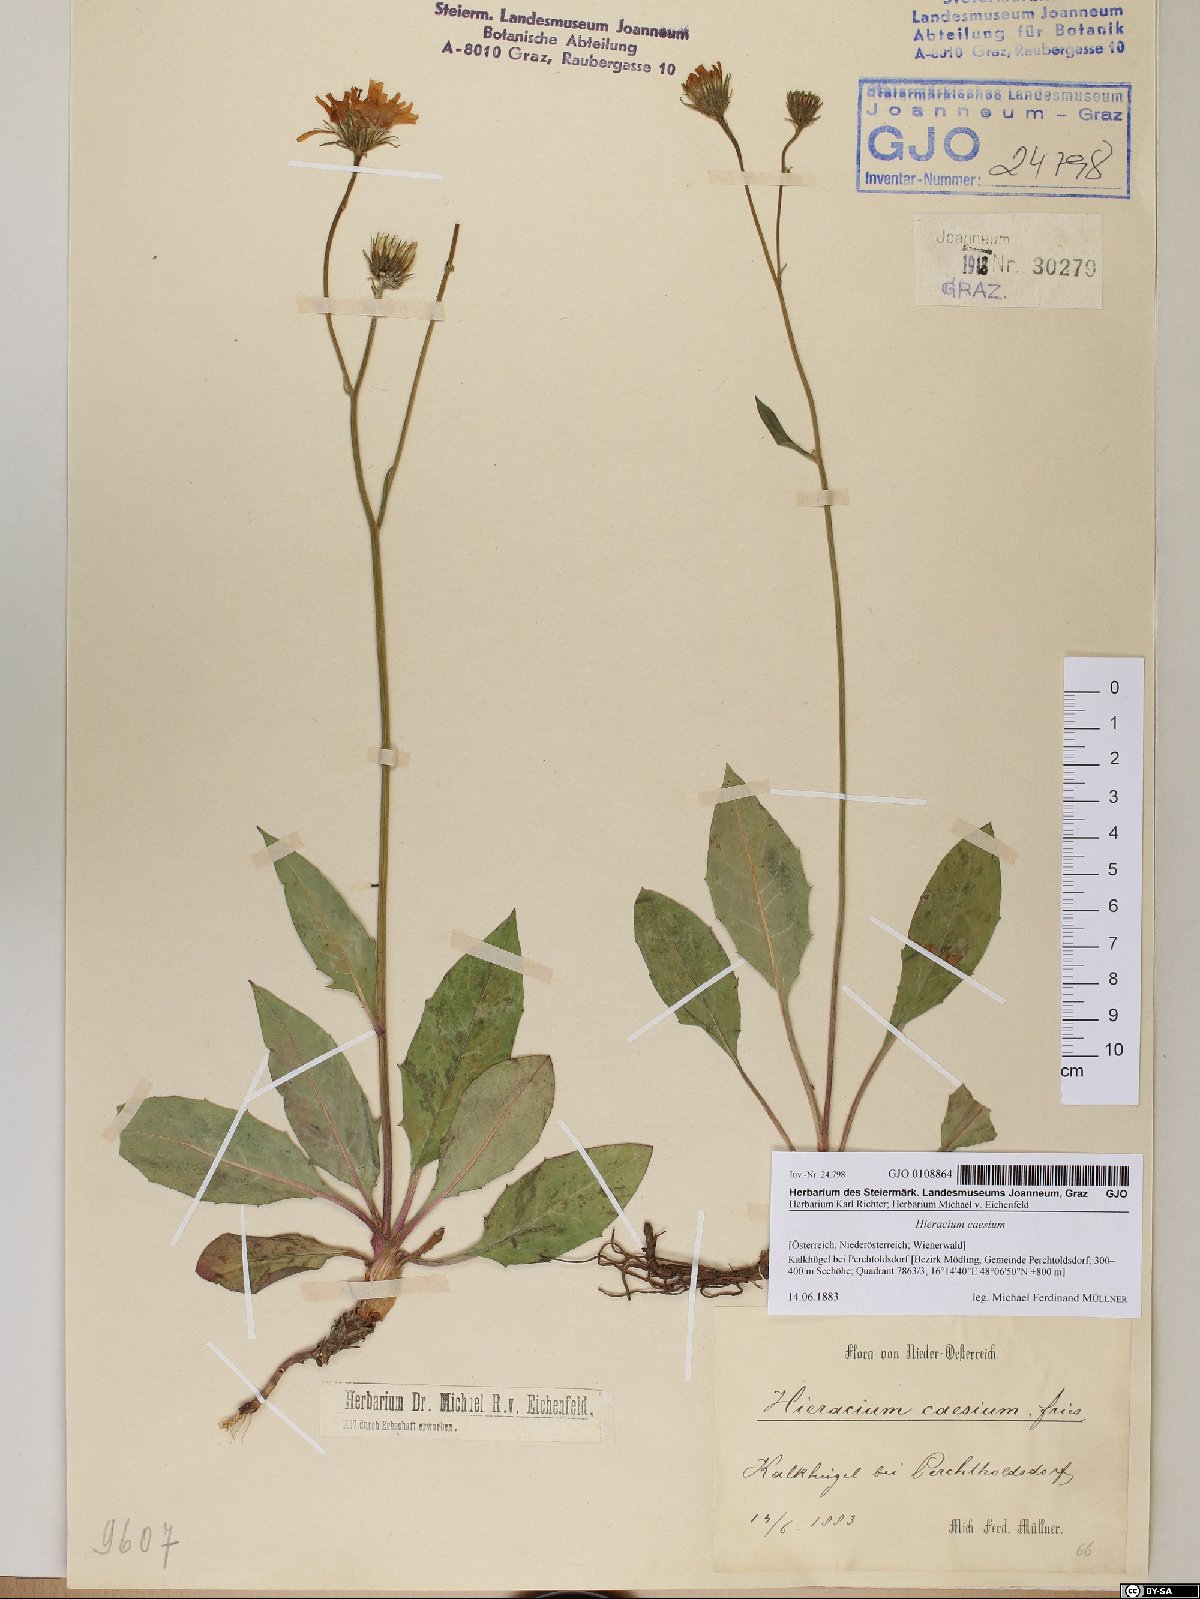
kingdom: Plantae
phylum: Tracheophyta
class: Magnoliopsida
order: Asterales
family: Asteraceae
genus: Hieracium
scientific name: Hieracium caesium
